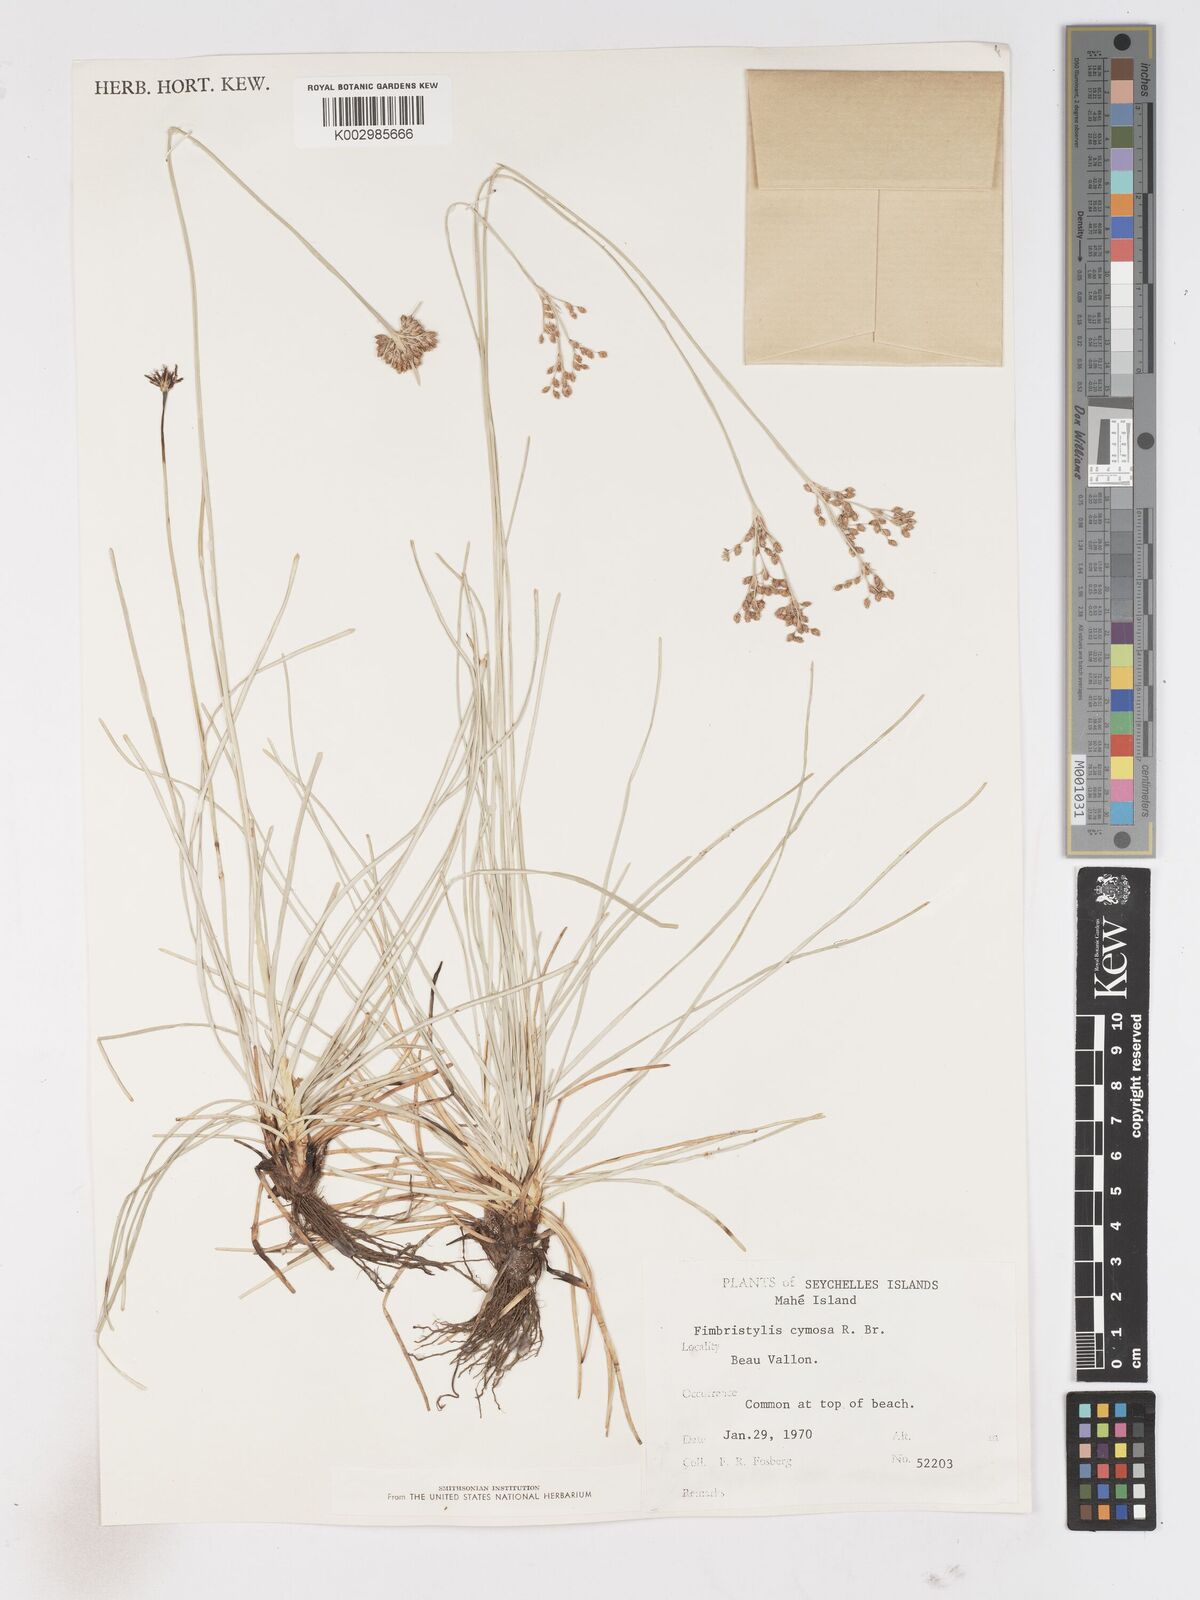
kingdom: Plantae
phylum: Tracheophyta
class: Liliopsida
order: Poales
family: Cyperaceae
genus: Fimbristylis
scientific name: Fimbristylis cymosa
